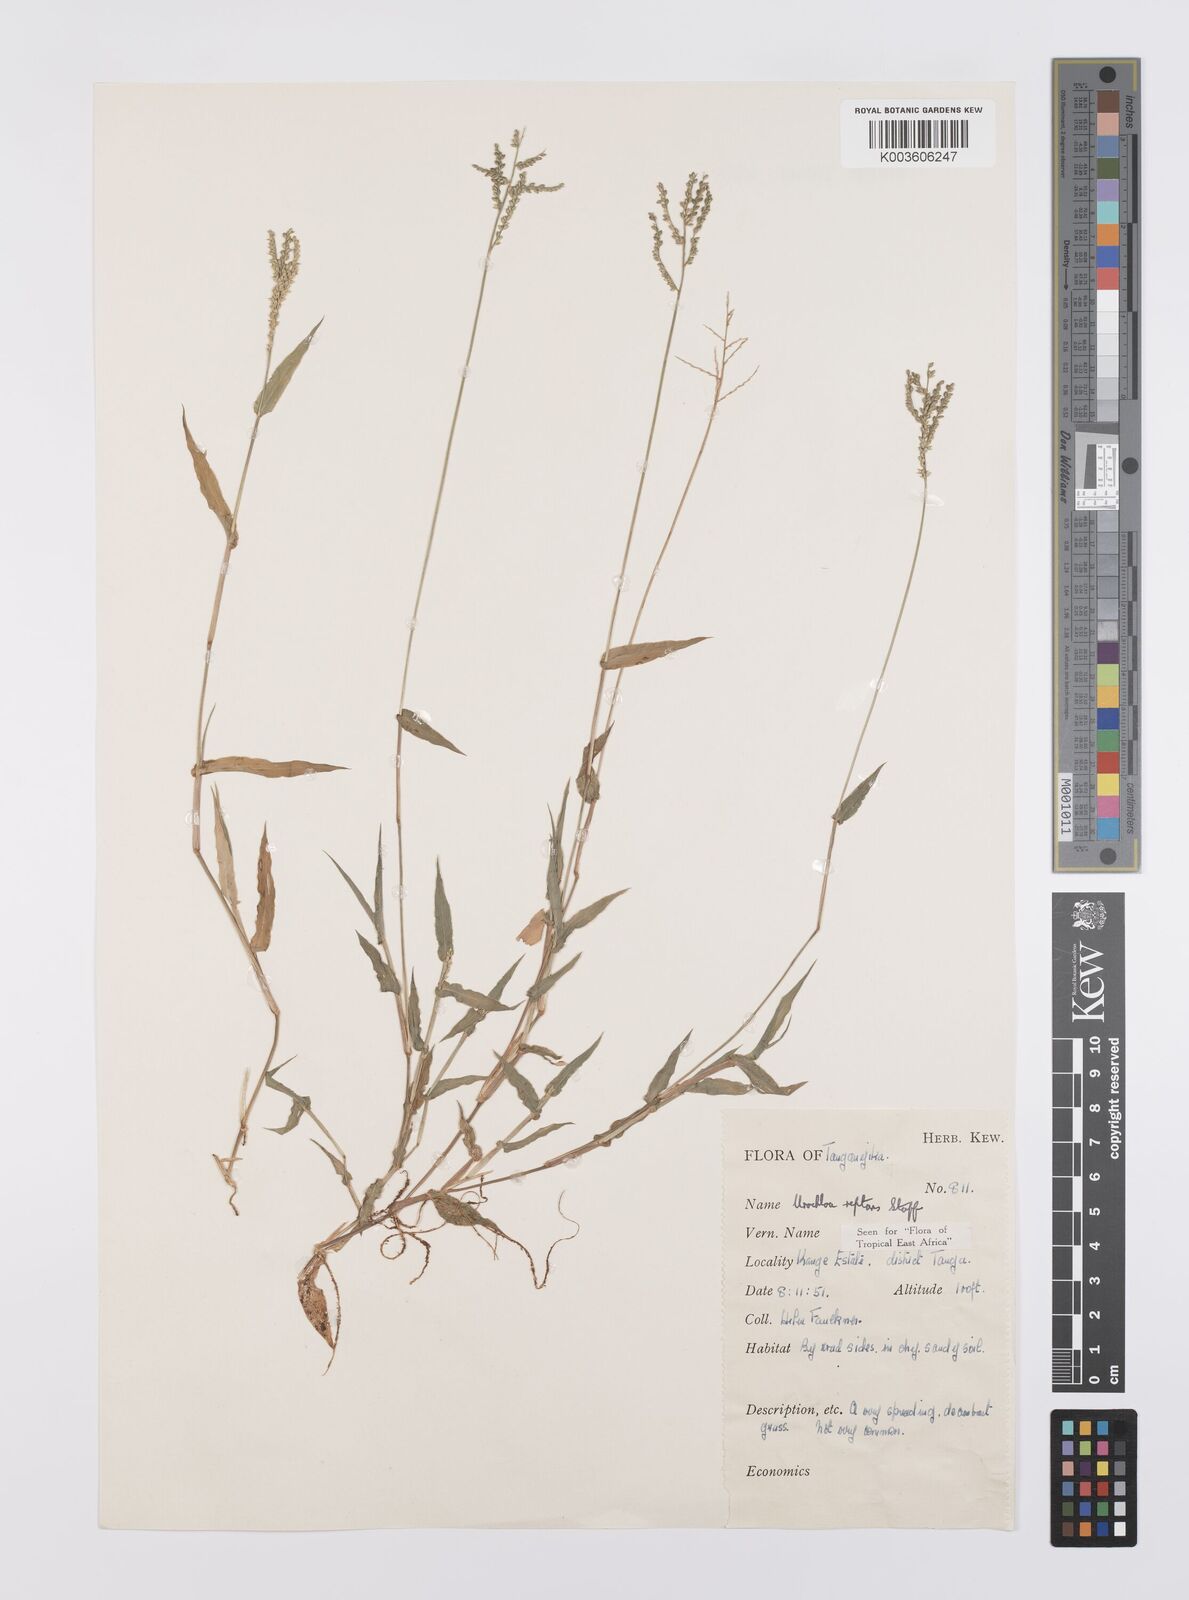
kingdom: Plantae
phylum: Tracheophyta
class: Liliopsida
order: Poales
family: Poaceae
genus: Urochloa
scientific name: Urochloa reptans
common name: Sprawling signalgrass
